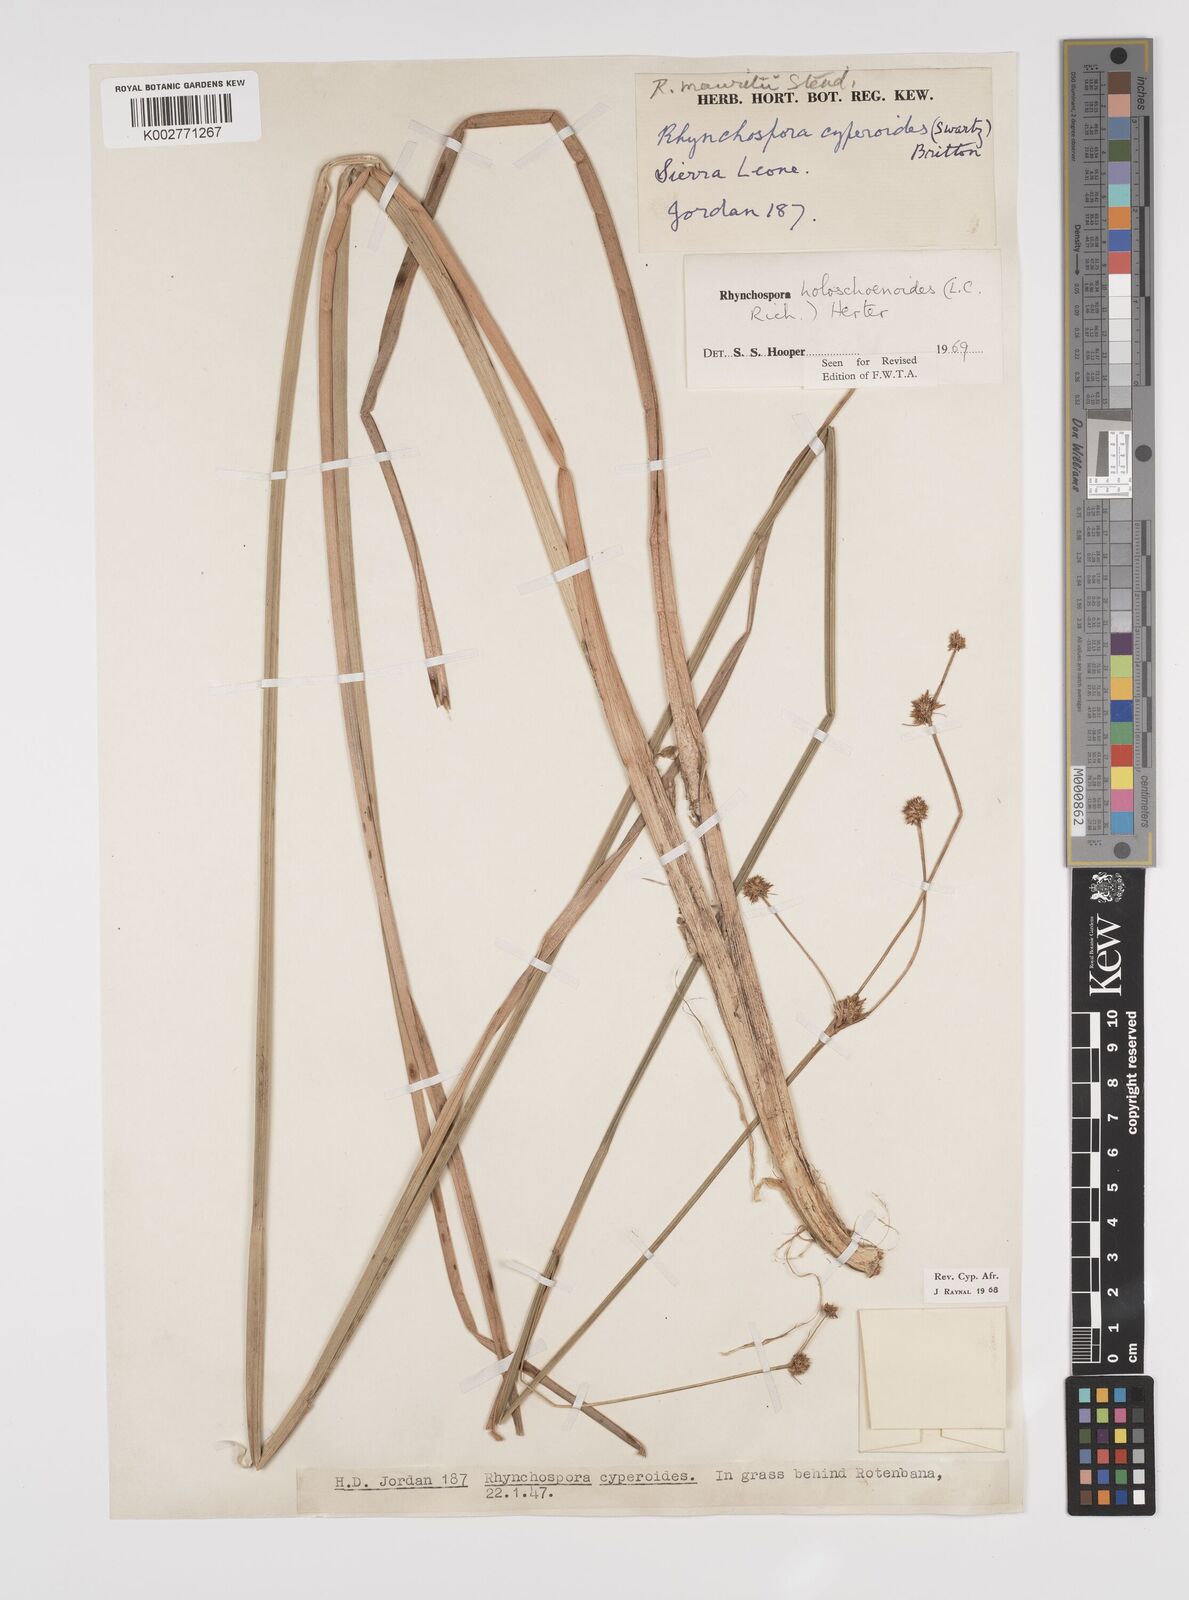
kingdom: Plantae
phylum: Tracheophyta
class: Liliopsida
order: Poales
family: Cyperaceae
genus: Rhynchospora
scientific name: Rhynchospora holoschoenoides
